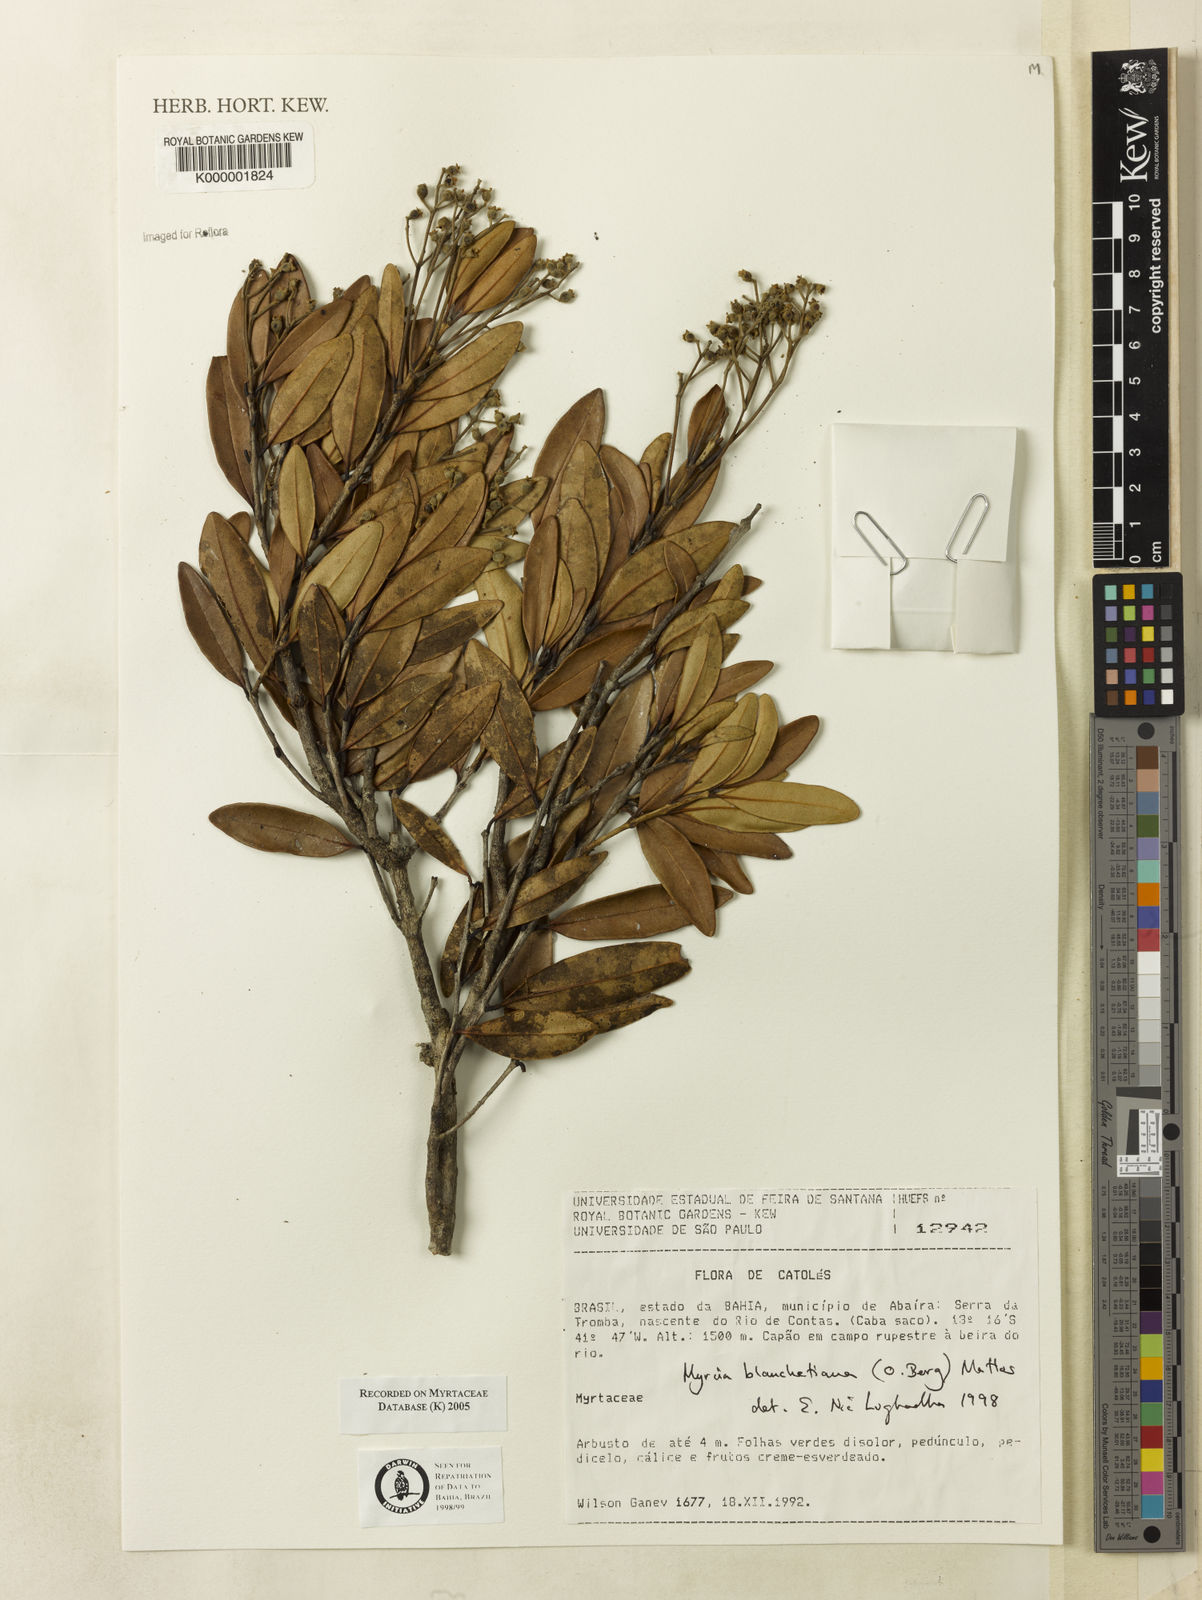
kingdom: Plantae
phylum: Tracheophyta
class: Magnoliopsida
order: Myrtales
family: Myrtaceae
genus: Myrcia
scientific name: Myrcia blanchetiana
